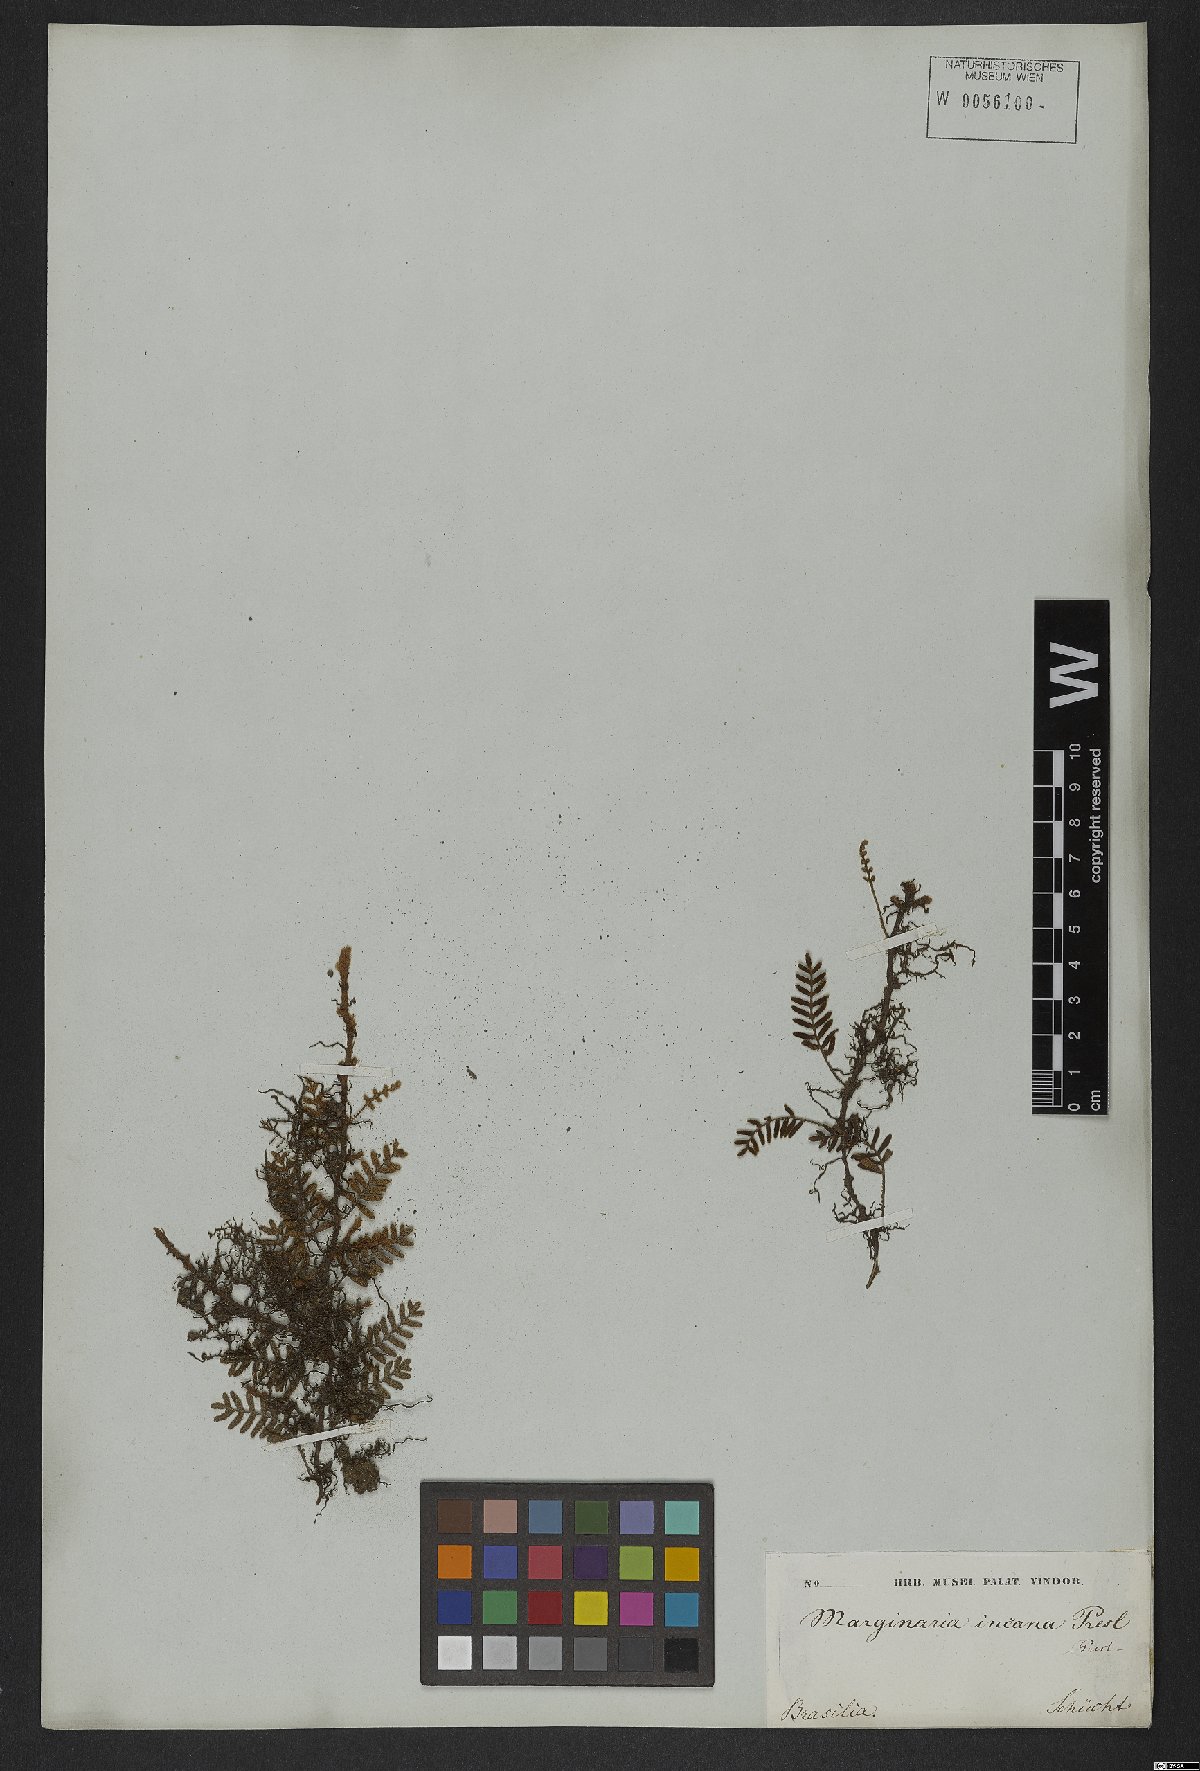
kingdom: Plantae
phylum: Tracheophyta
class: Polypodiopsida
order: Polypodiales
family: Polypodiaceae
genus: Pleopeltis
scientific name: Pleopeltis polypodioides
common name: Resurrection fern
